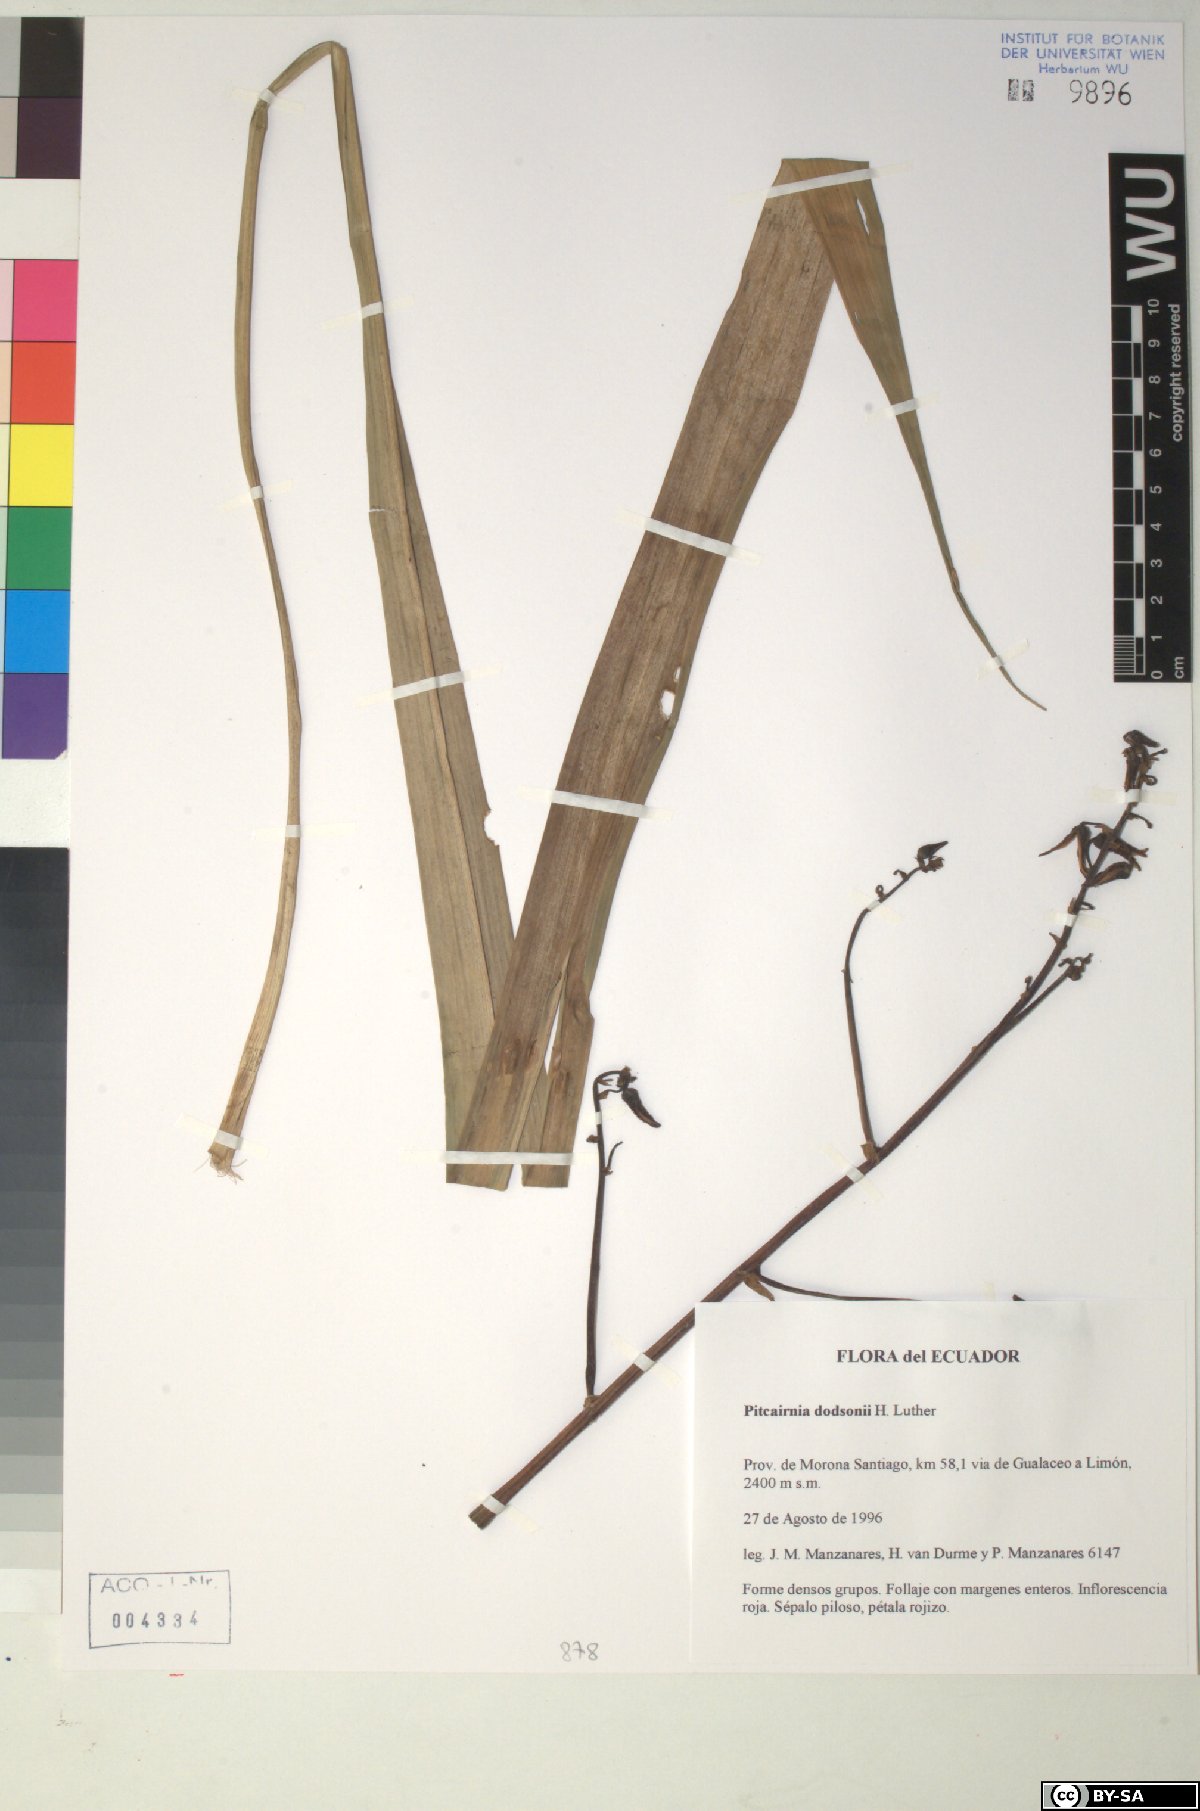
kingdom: Plantae
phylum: Tracheophyta
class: Liliopsida
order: Poales
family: Bromeliaceae
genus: Pitcairnia
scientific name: Pitcairnia dodsonii
